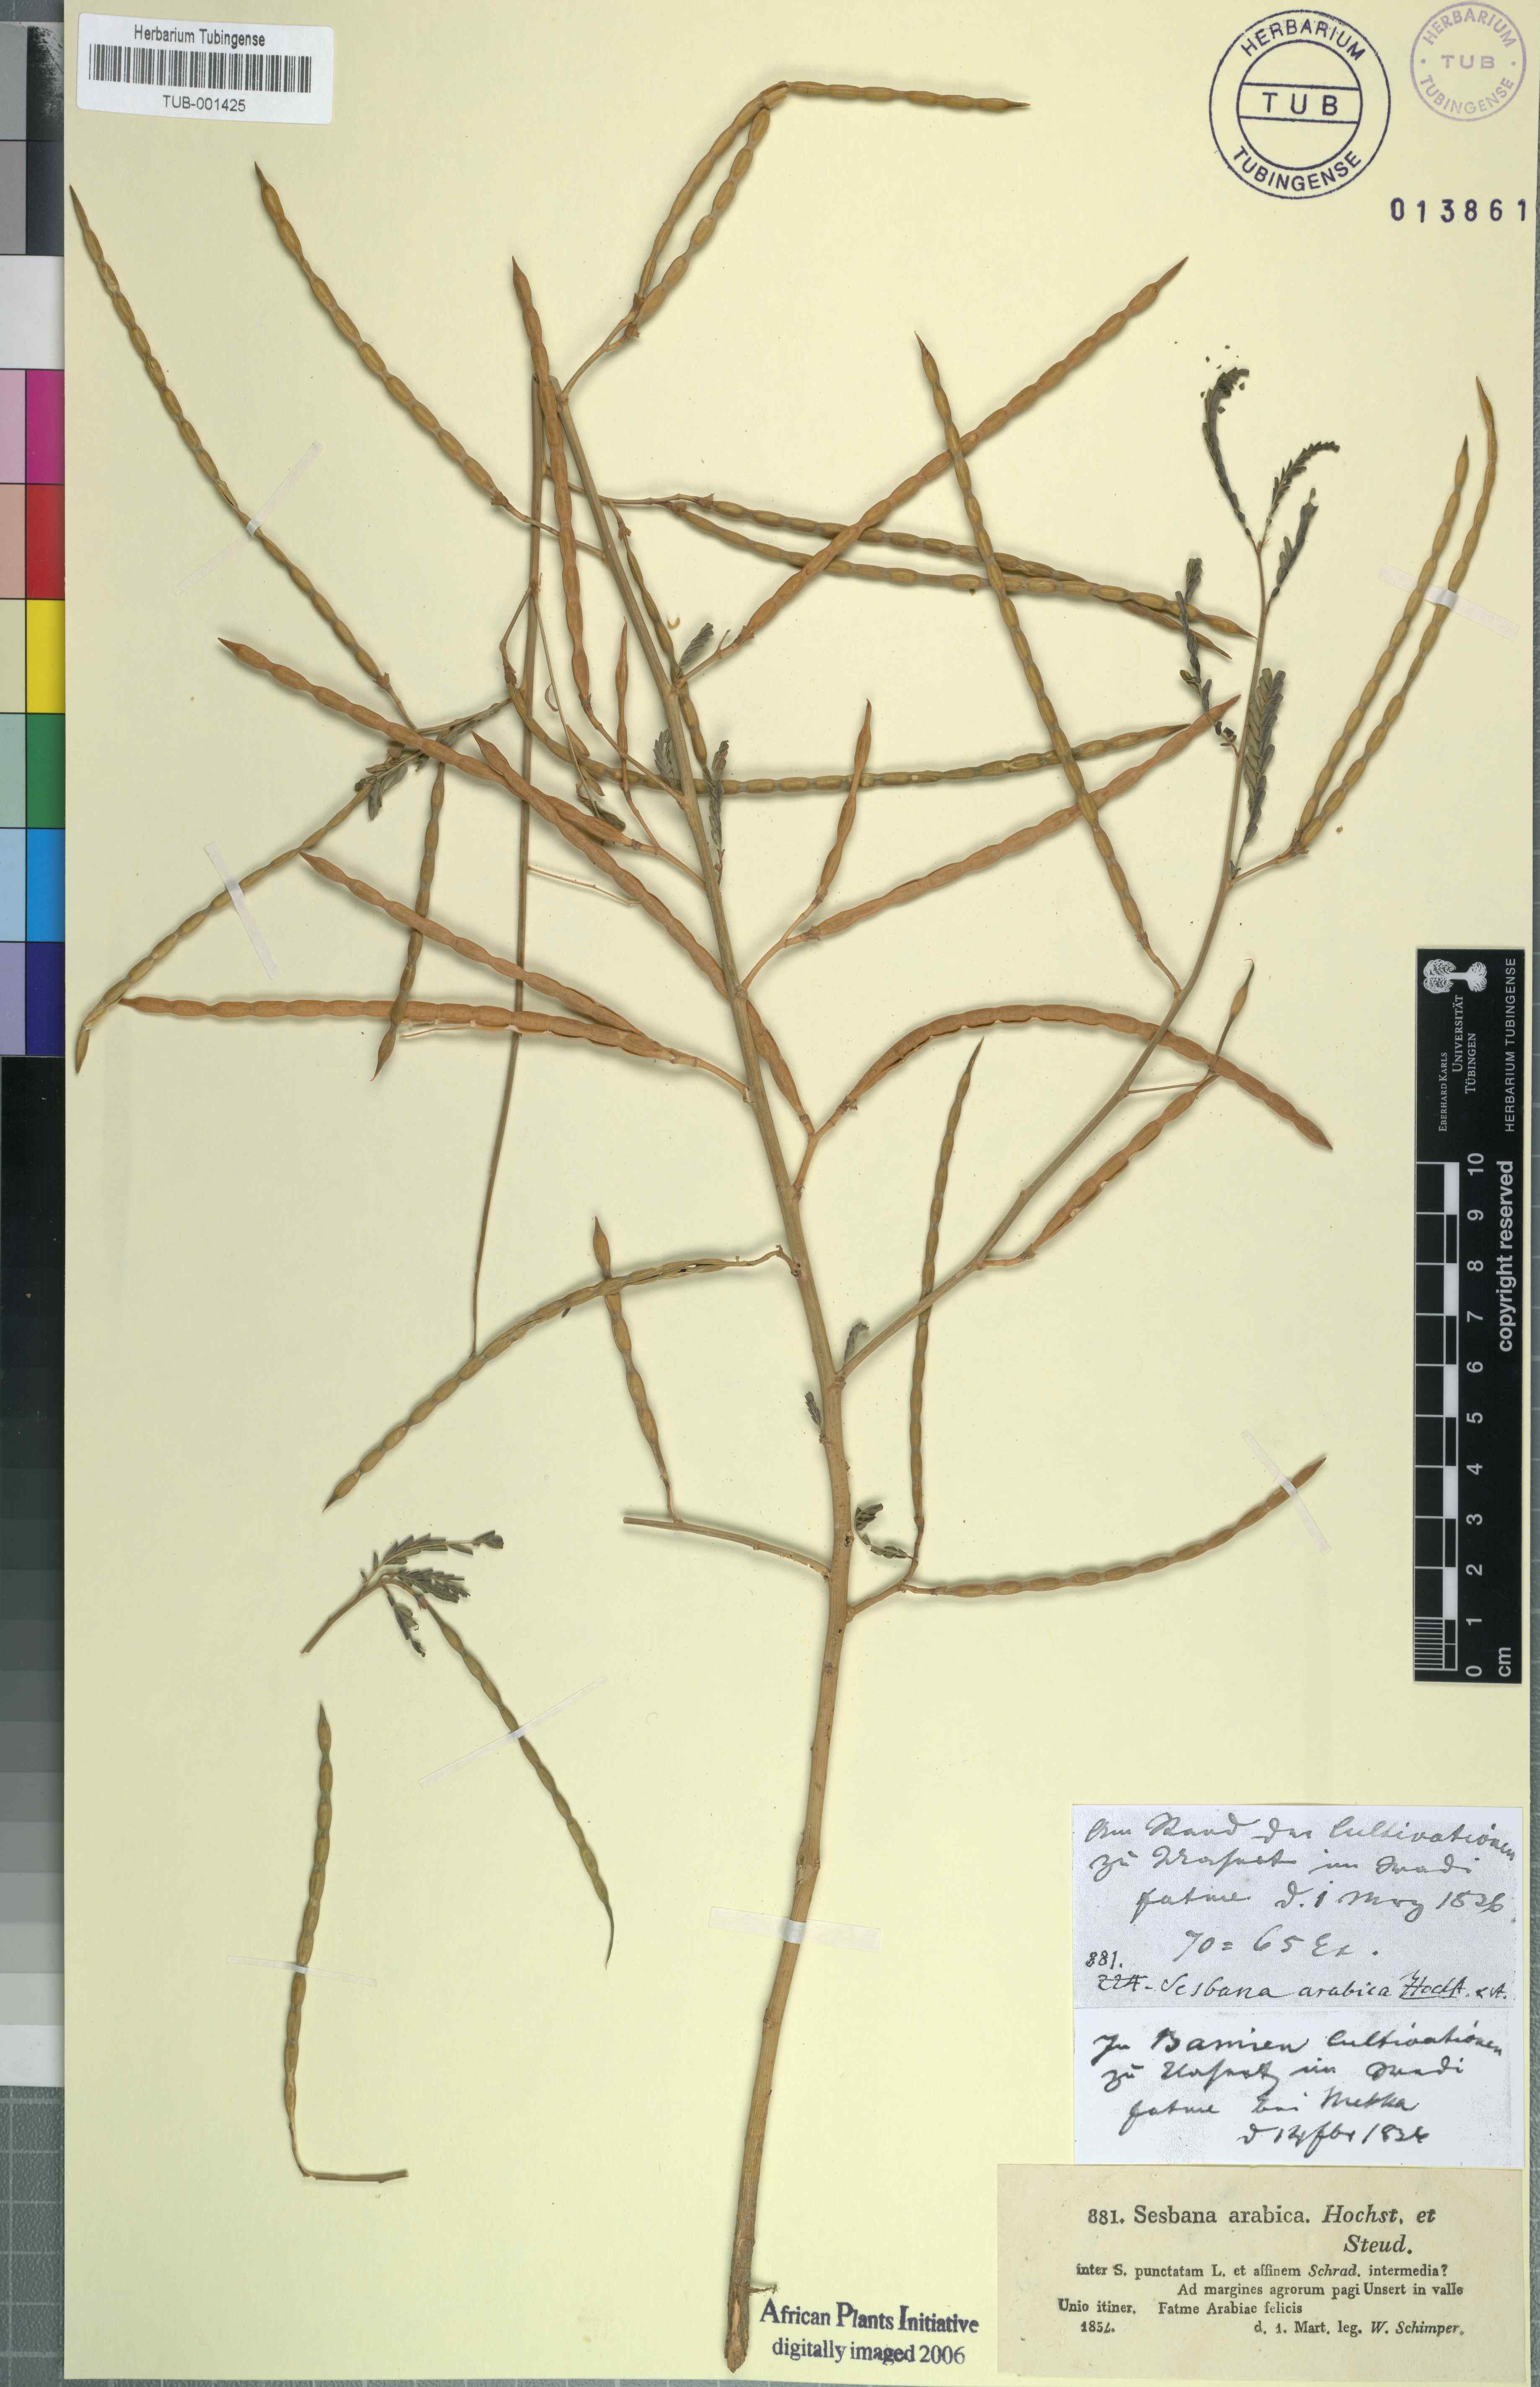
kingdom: Plantae
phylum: Tracheophyta
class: Magnoliopsida
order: Fabales
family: Fabaceae
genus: Sesbania
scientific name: Sesbania leptocarpa
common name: Riverhemp
